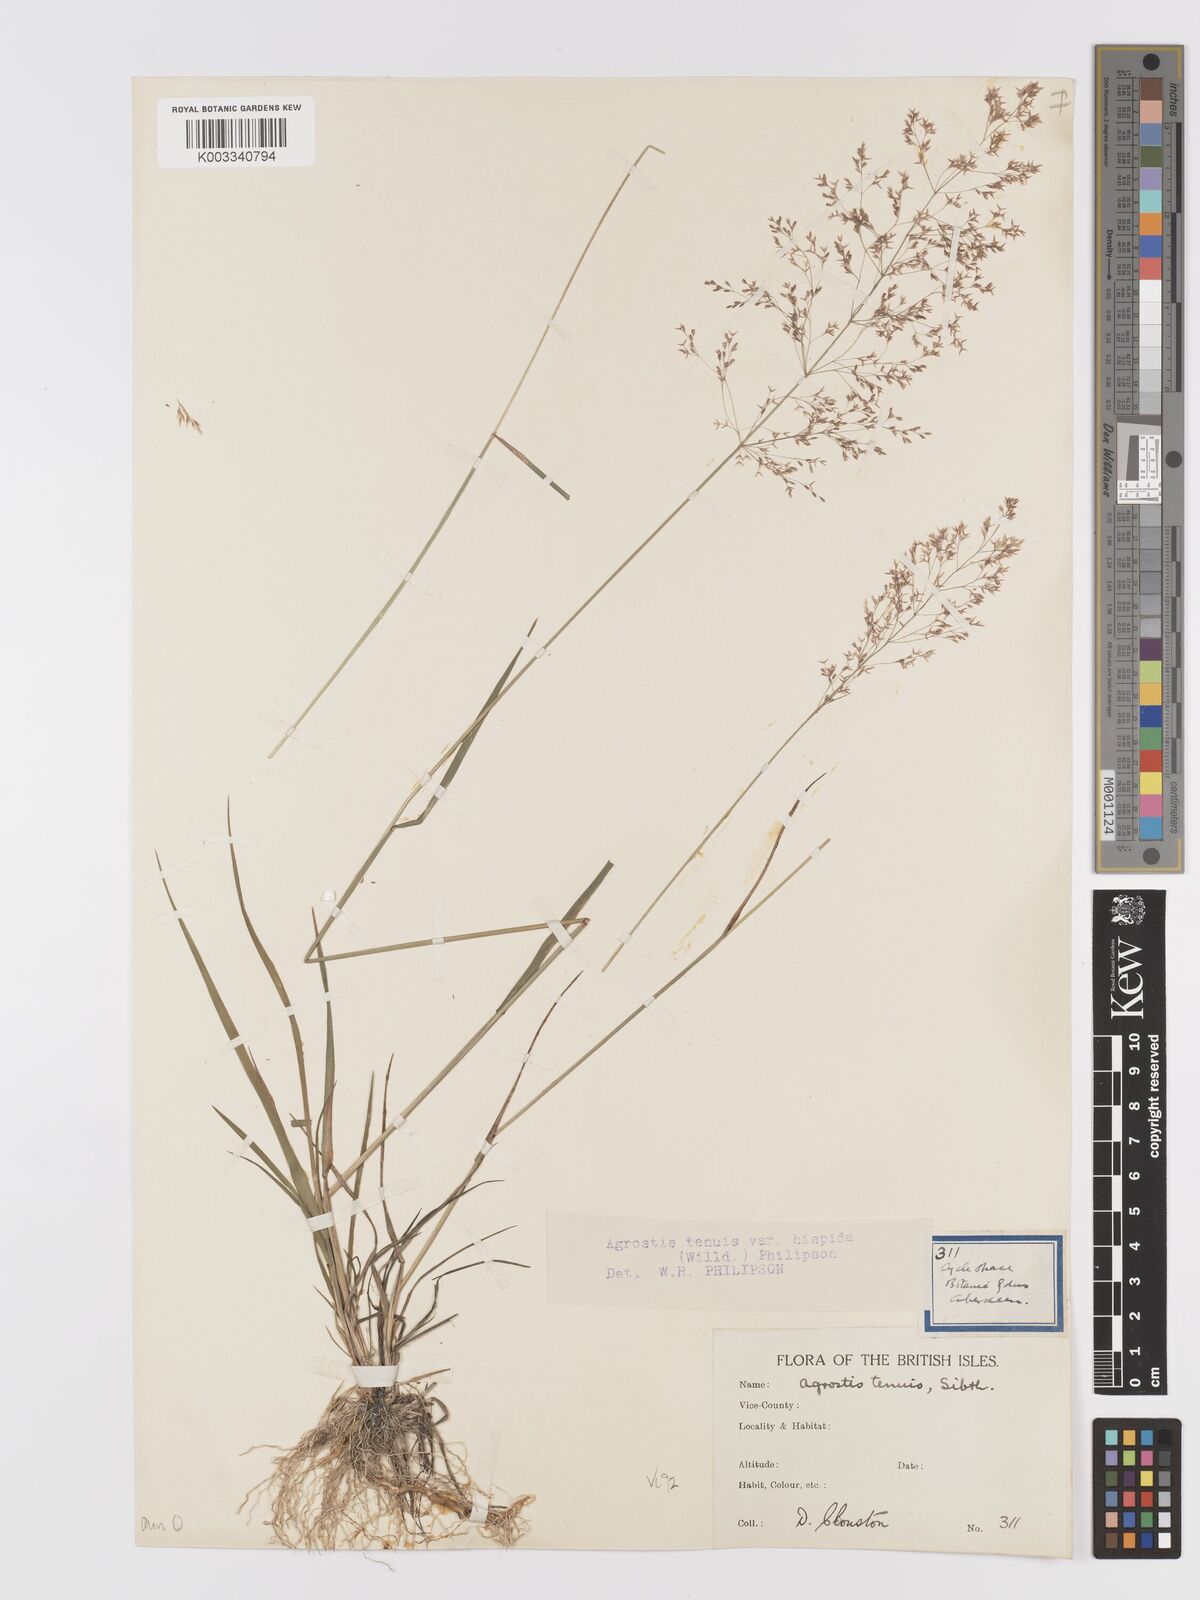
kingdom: Plantae
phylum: Tracheophyta
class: Liliopsida
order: Poales
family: Poaceae
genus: Agrostis
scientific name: Agrostis capillaris
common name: Colonial bentgrass
